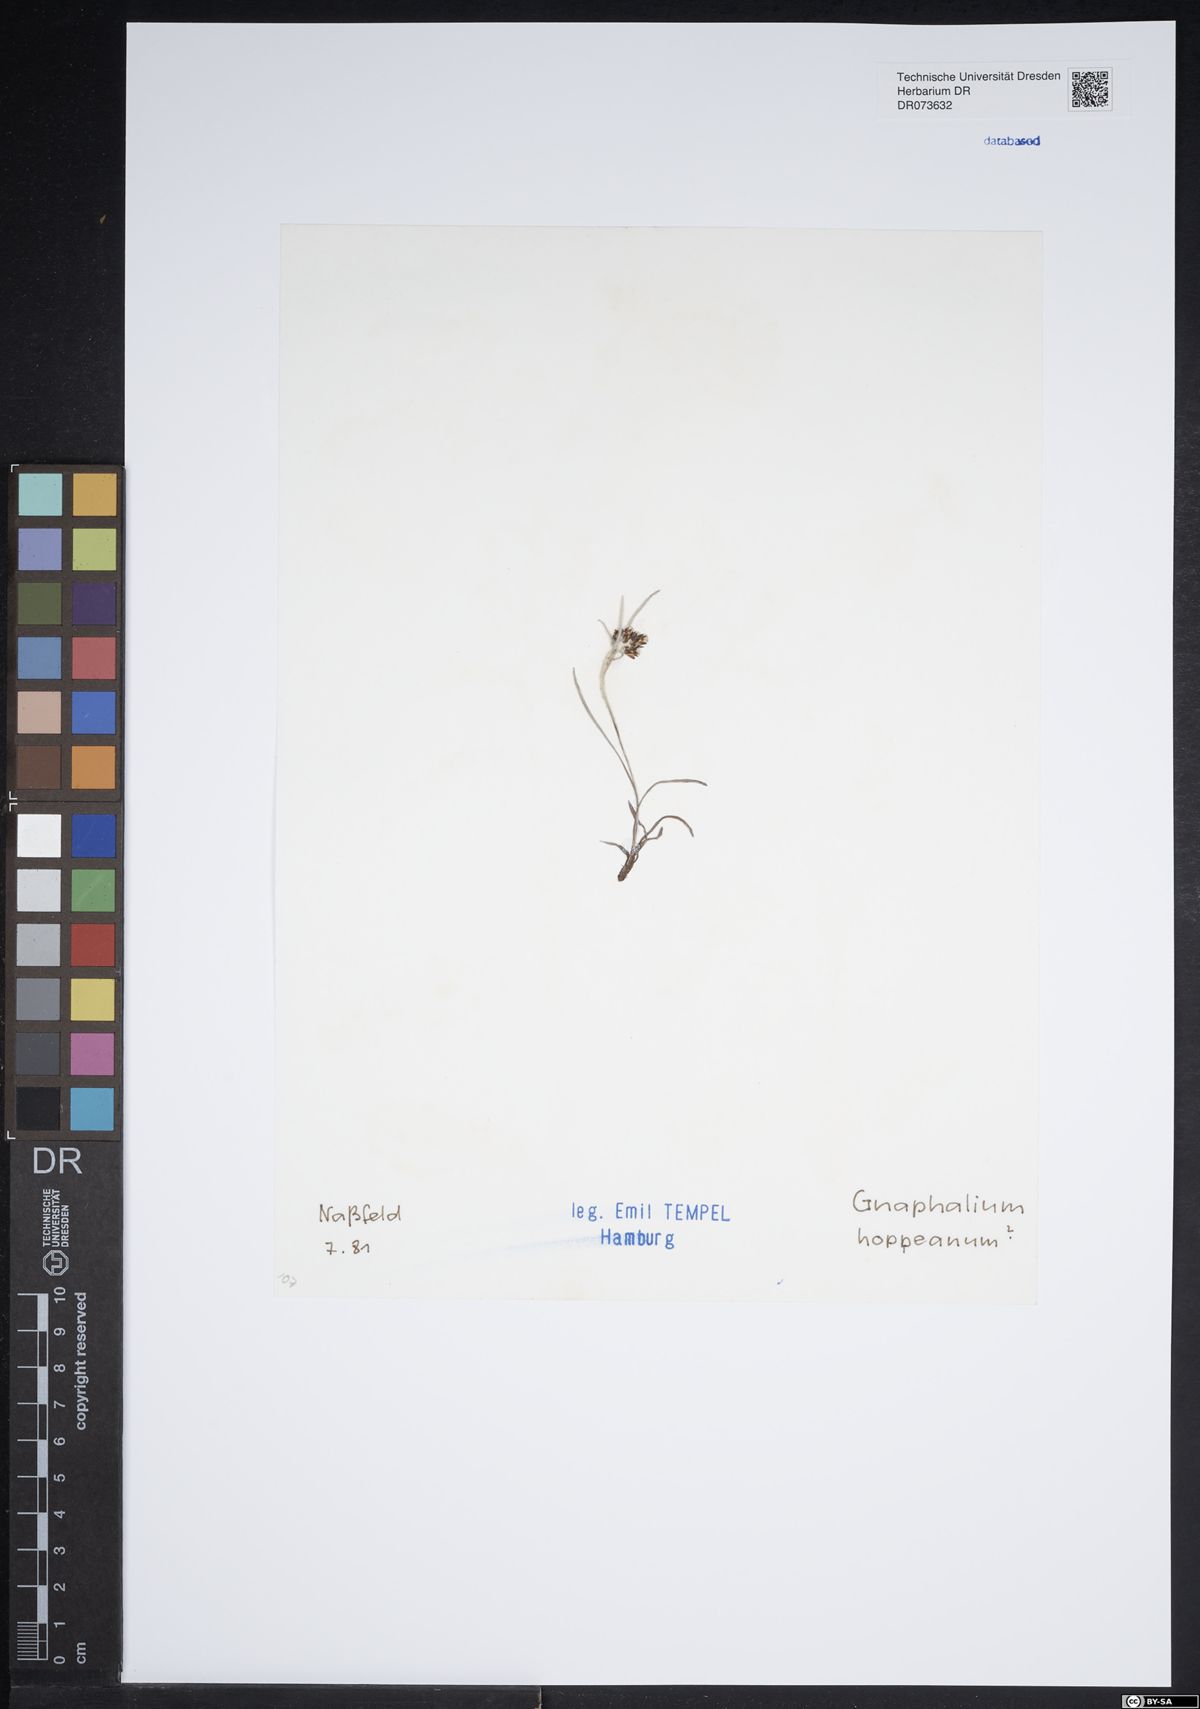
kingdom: Plantae
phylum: Tracheophyta
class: Magnoliopsida
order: Asterales
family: Asteraceae
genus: Omalotheca
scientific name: Omalotheca hoppeana
